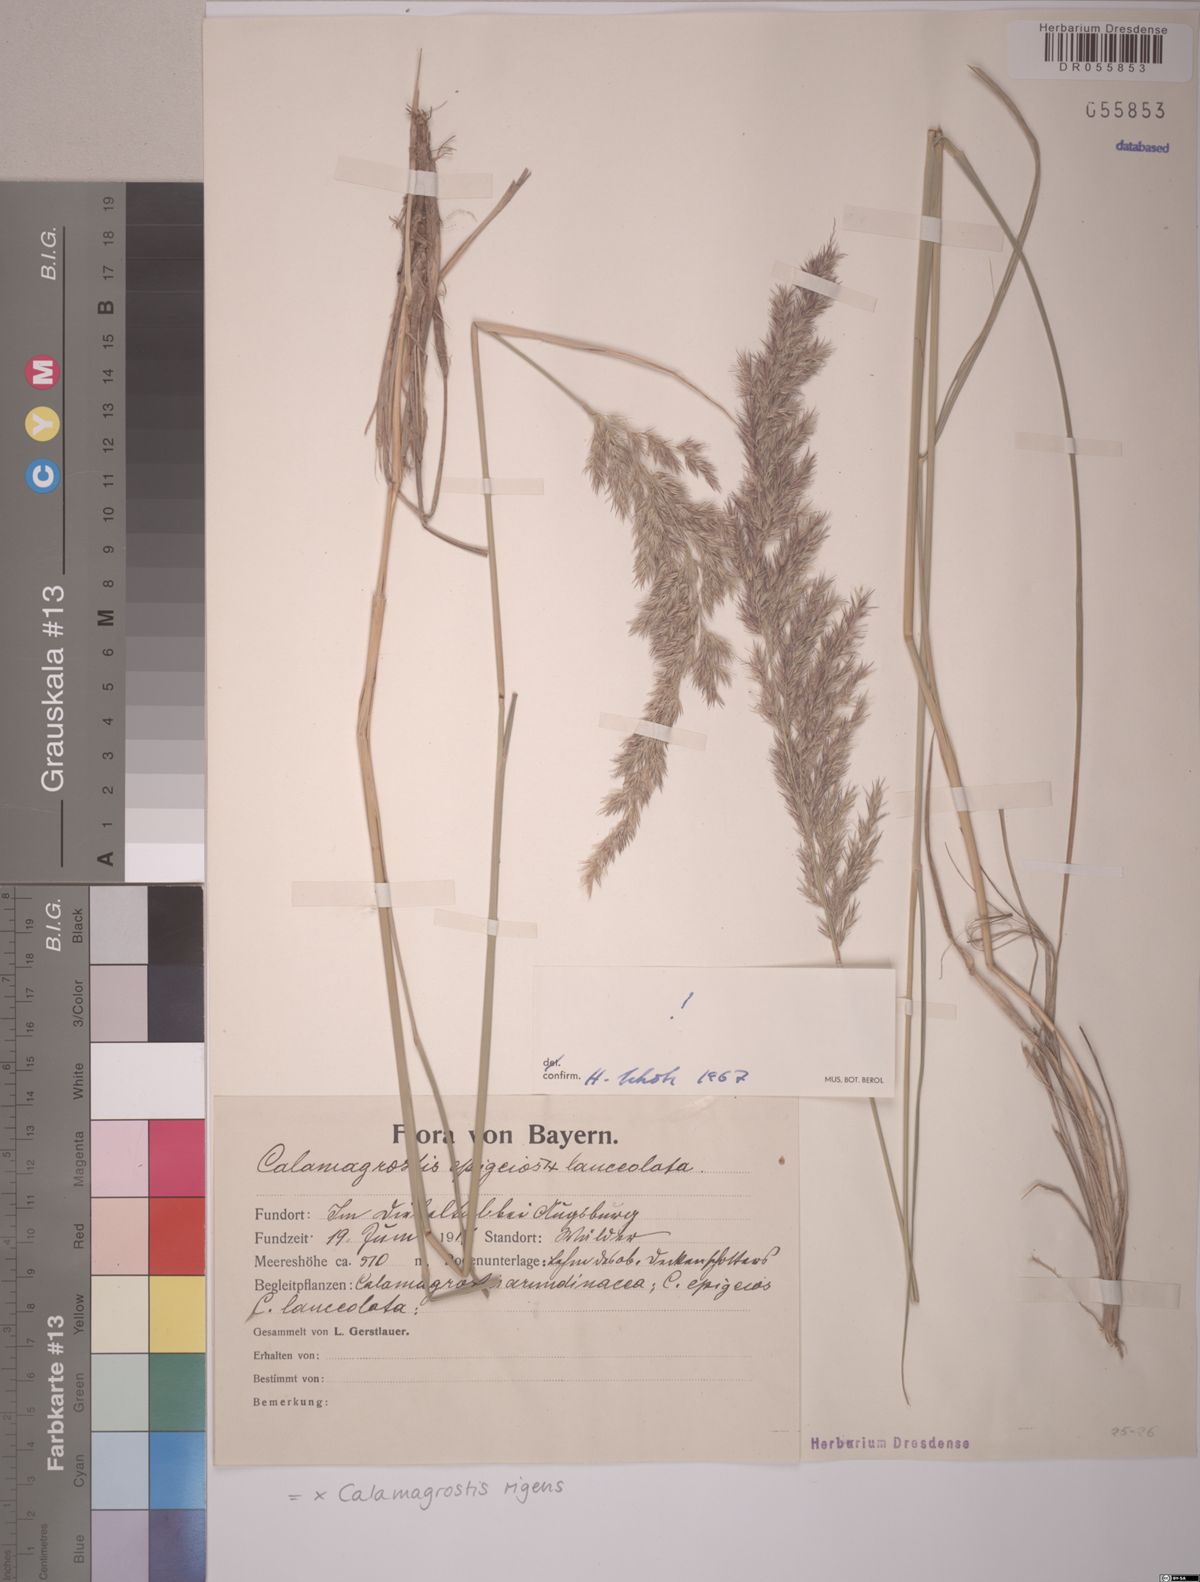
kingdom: Plantae
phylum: Tracheophyta
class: Liliopsida
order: Poales
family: Poaceae
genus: Calamagrostis
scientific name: Calamagrostis rigens
